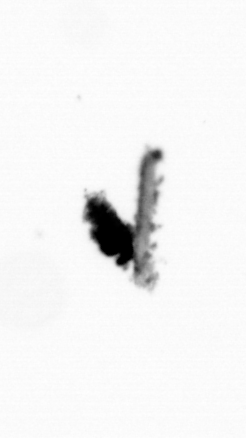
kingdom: Animalia
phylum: Arthropoda
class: Copepoda
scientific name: Copepoda
